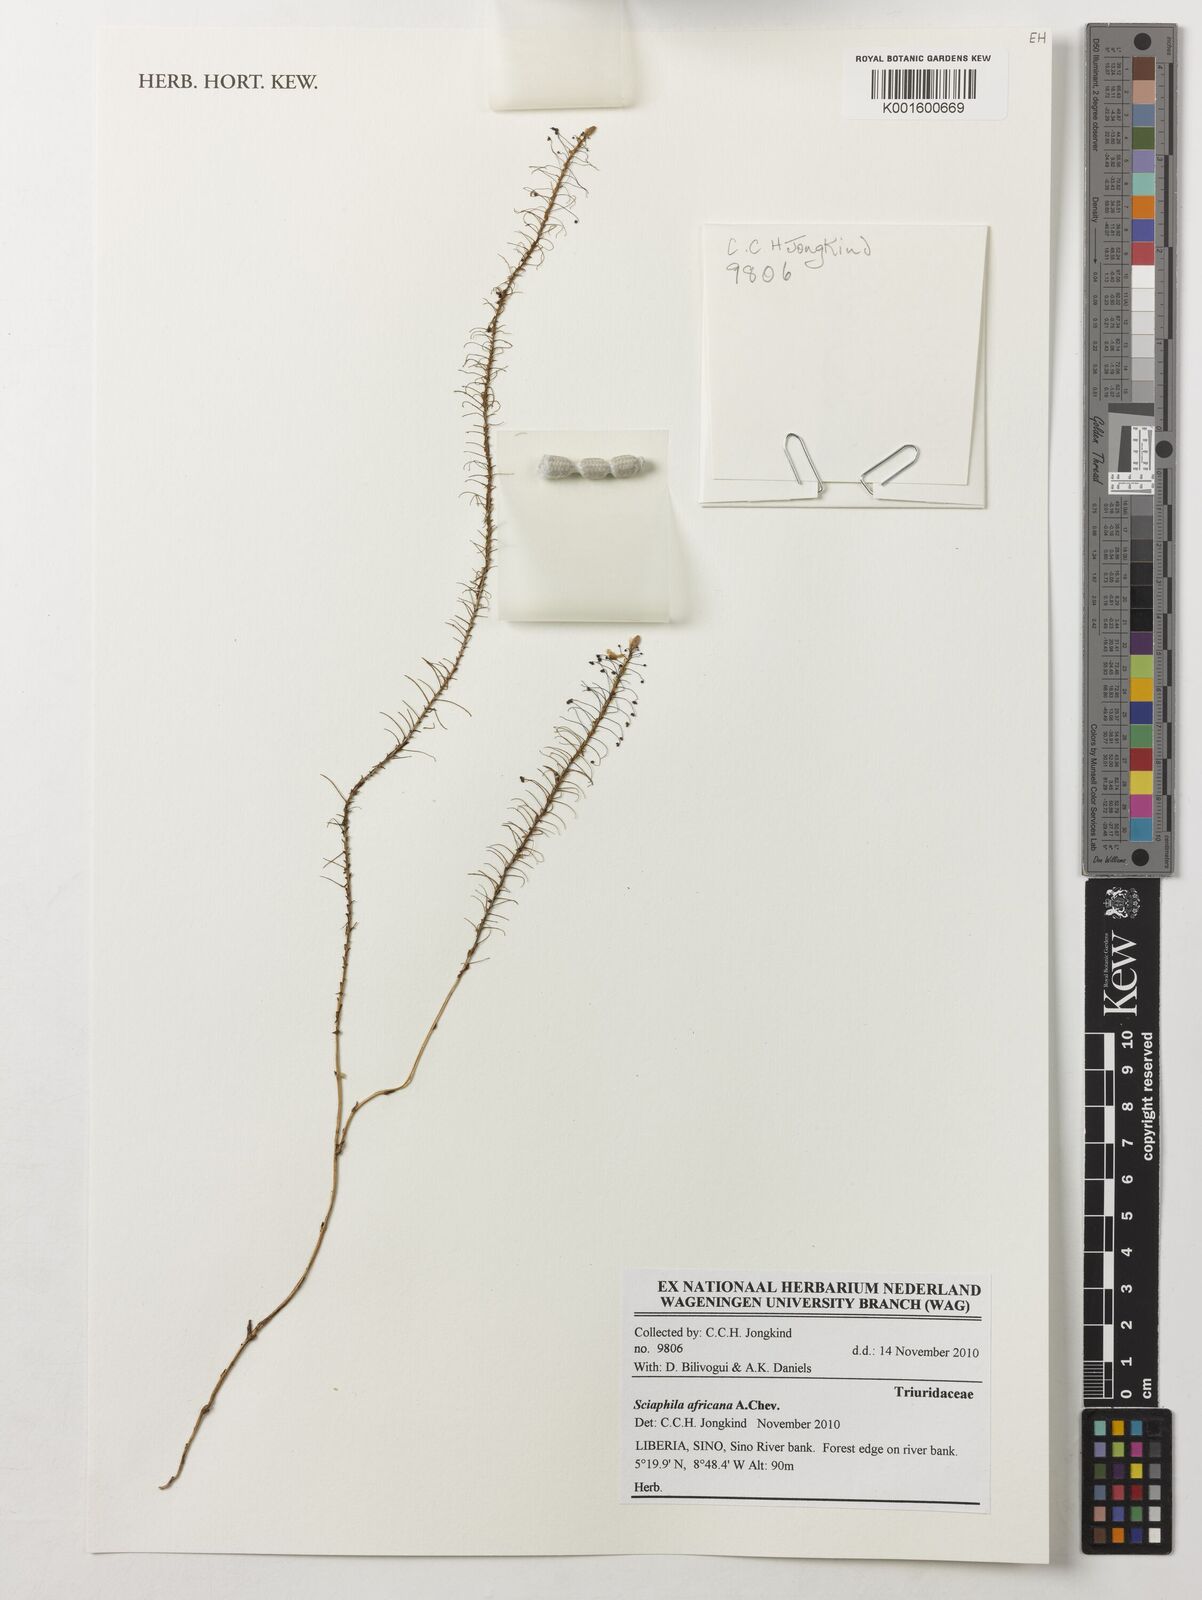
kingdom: Plantae
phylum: Tracheophyta
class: Liliopsida
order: Pandanales
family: Triuridaceae
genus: Sciaphila
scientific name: Sciaphila africana
